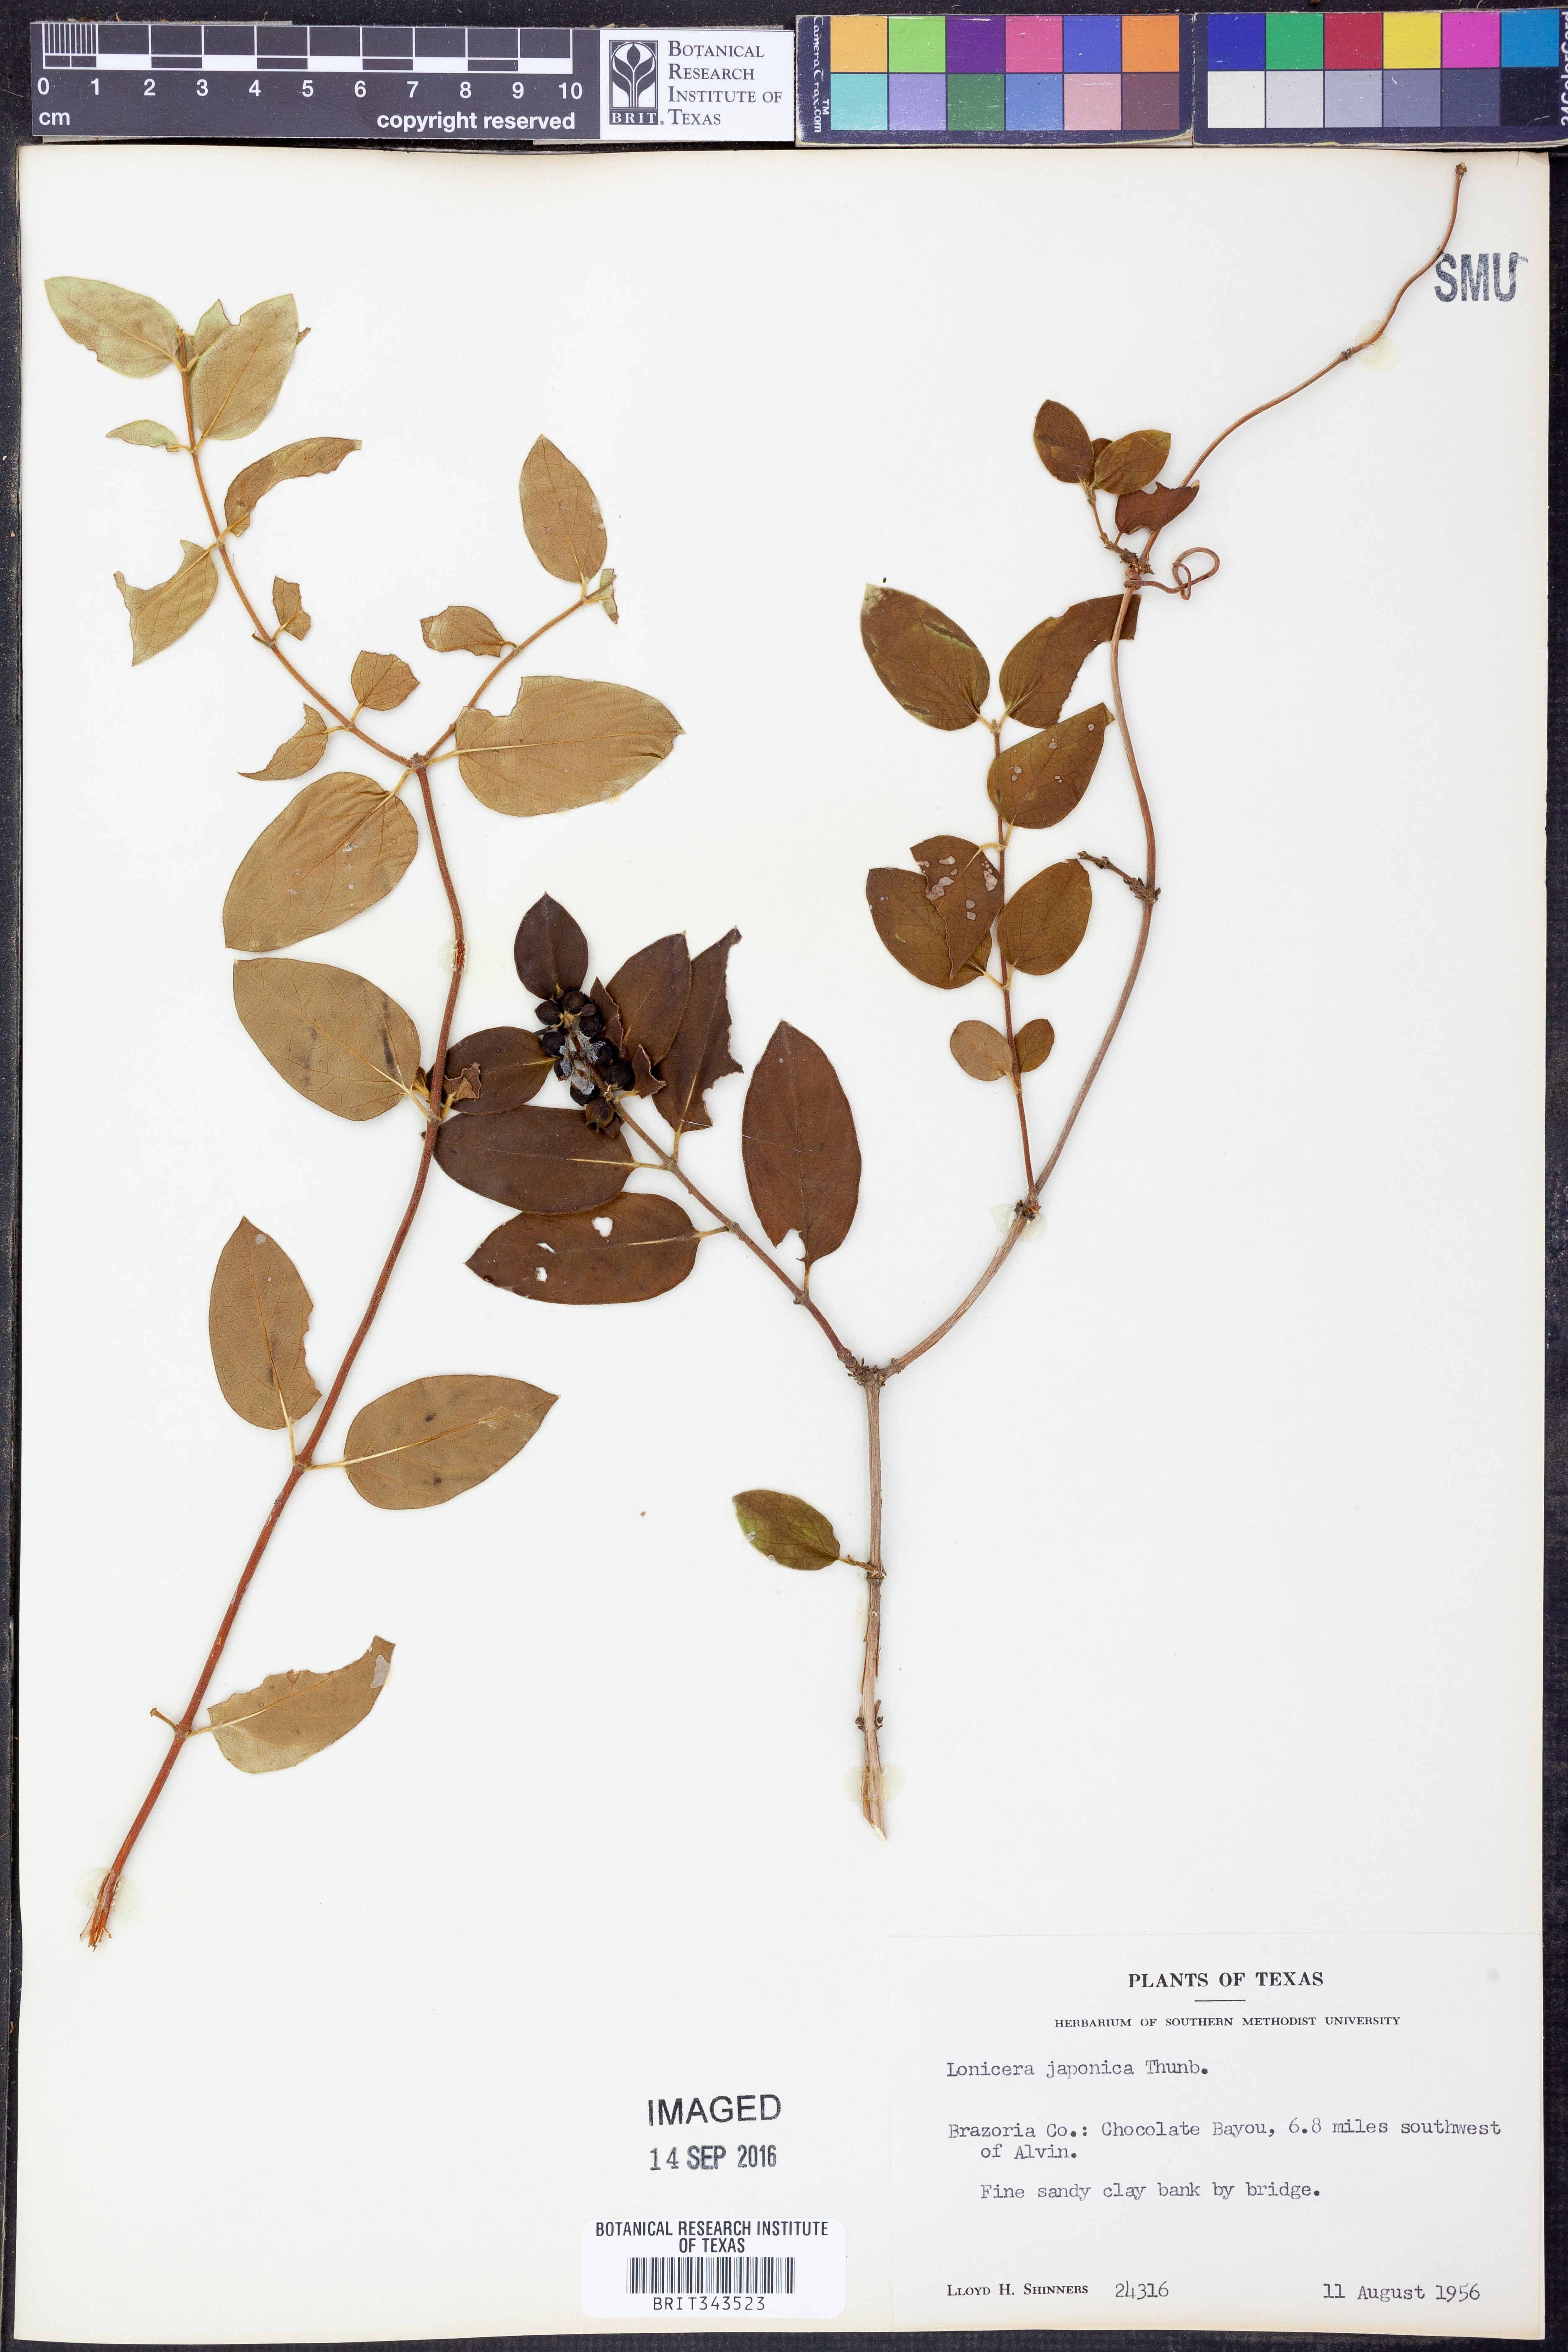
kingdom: Plantae
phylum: Tracheophyta
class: Magnoliopsida
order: Dipsacales
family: Caprifoliaceae
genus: Lonicera
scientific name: Lonicera japonica
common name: Japanese honeysuckle
